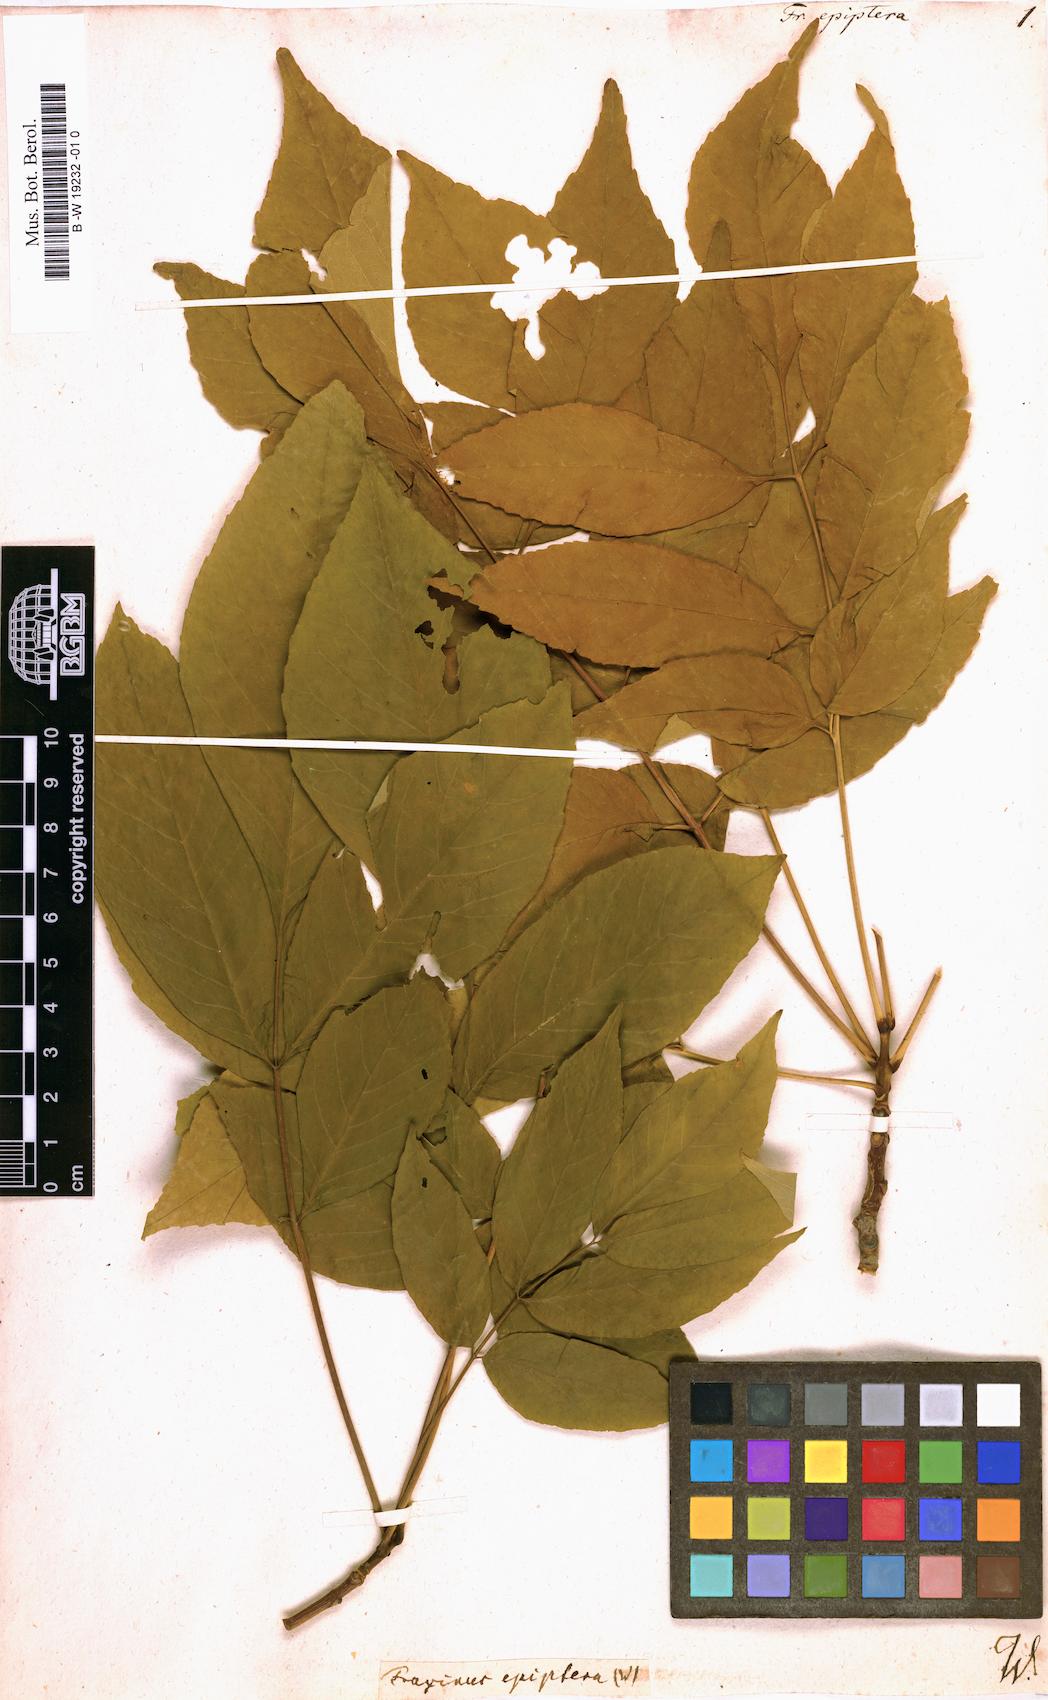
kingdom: Plantae
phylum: Tracheophyta
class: Magnoliopsida
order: Lamiales
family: Oleaceae
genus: Fraxinus
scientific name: Fraxinus americana
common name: White ash
